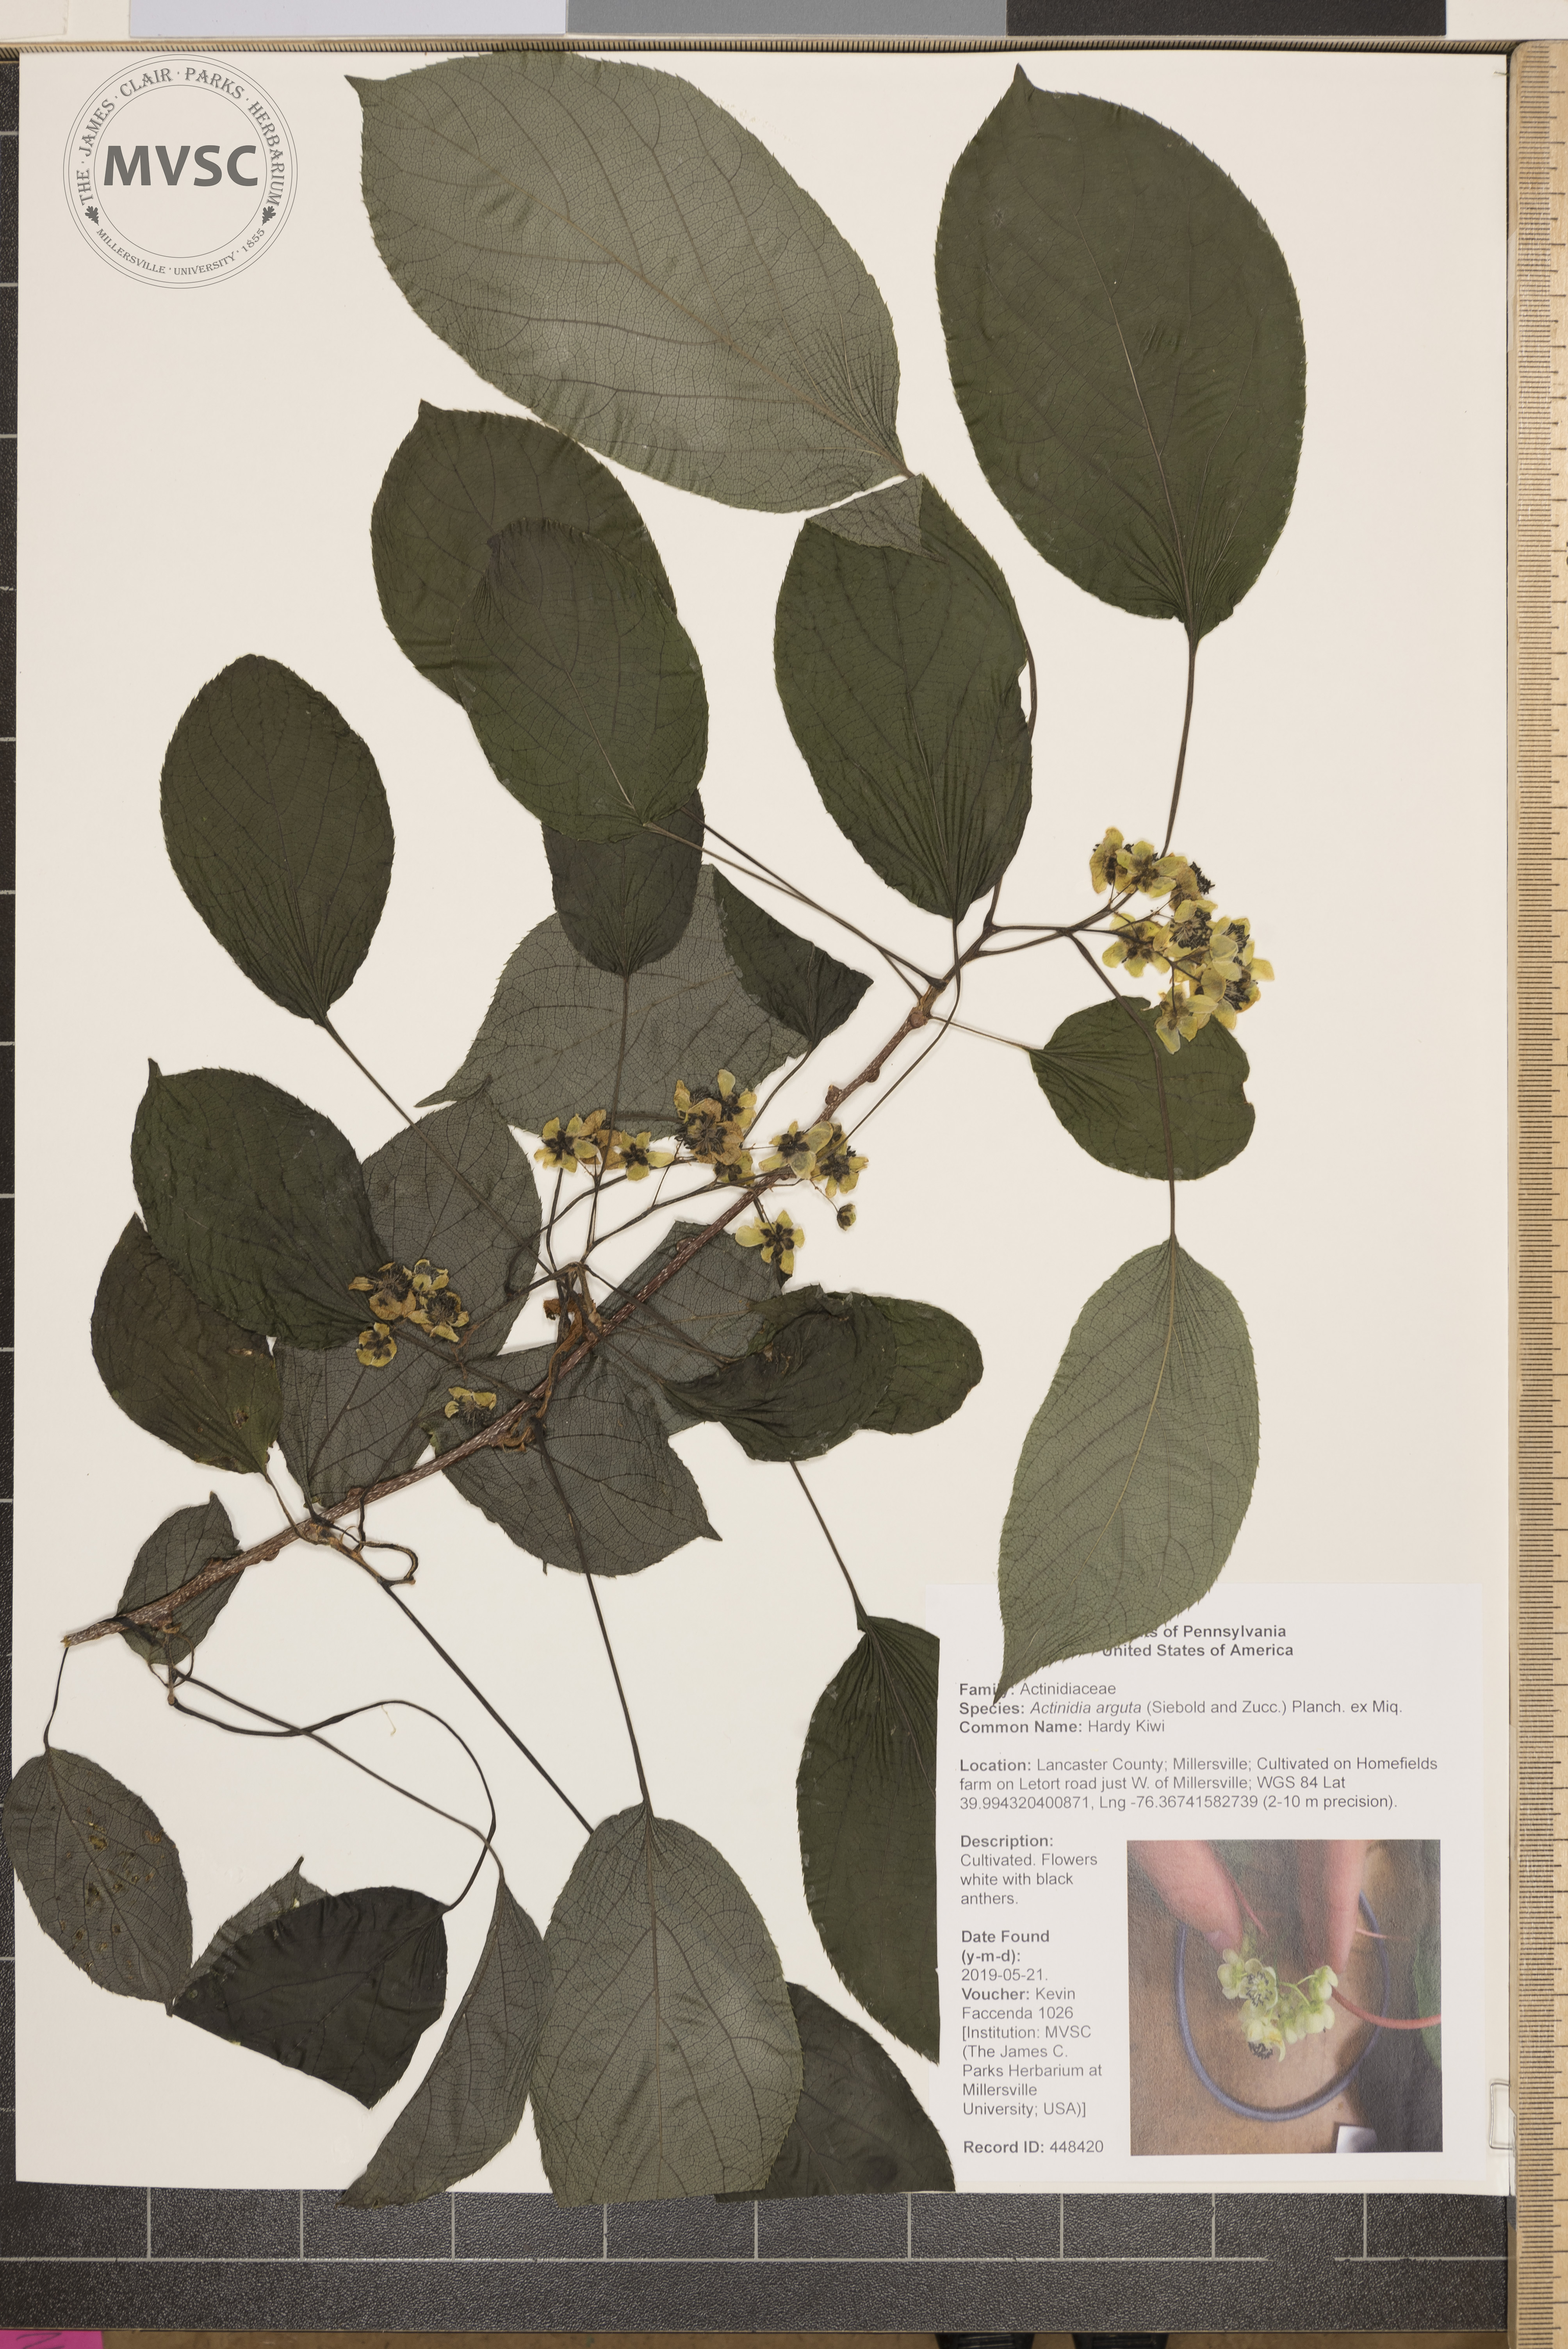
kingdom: Plantae
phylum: Tracheophyta
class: Magnoliopsida
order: Ericales
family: Actinidiaceae
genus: Actinidia
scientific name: Actinidia arguta
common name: Hardy Kiwi
